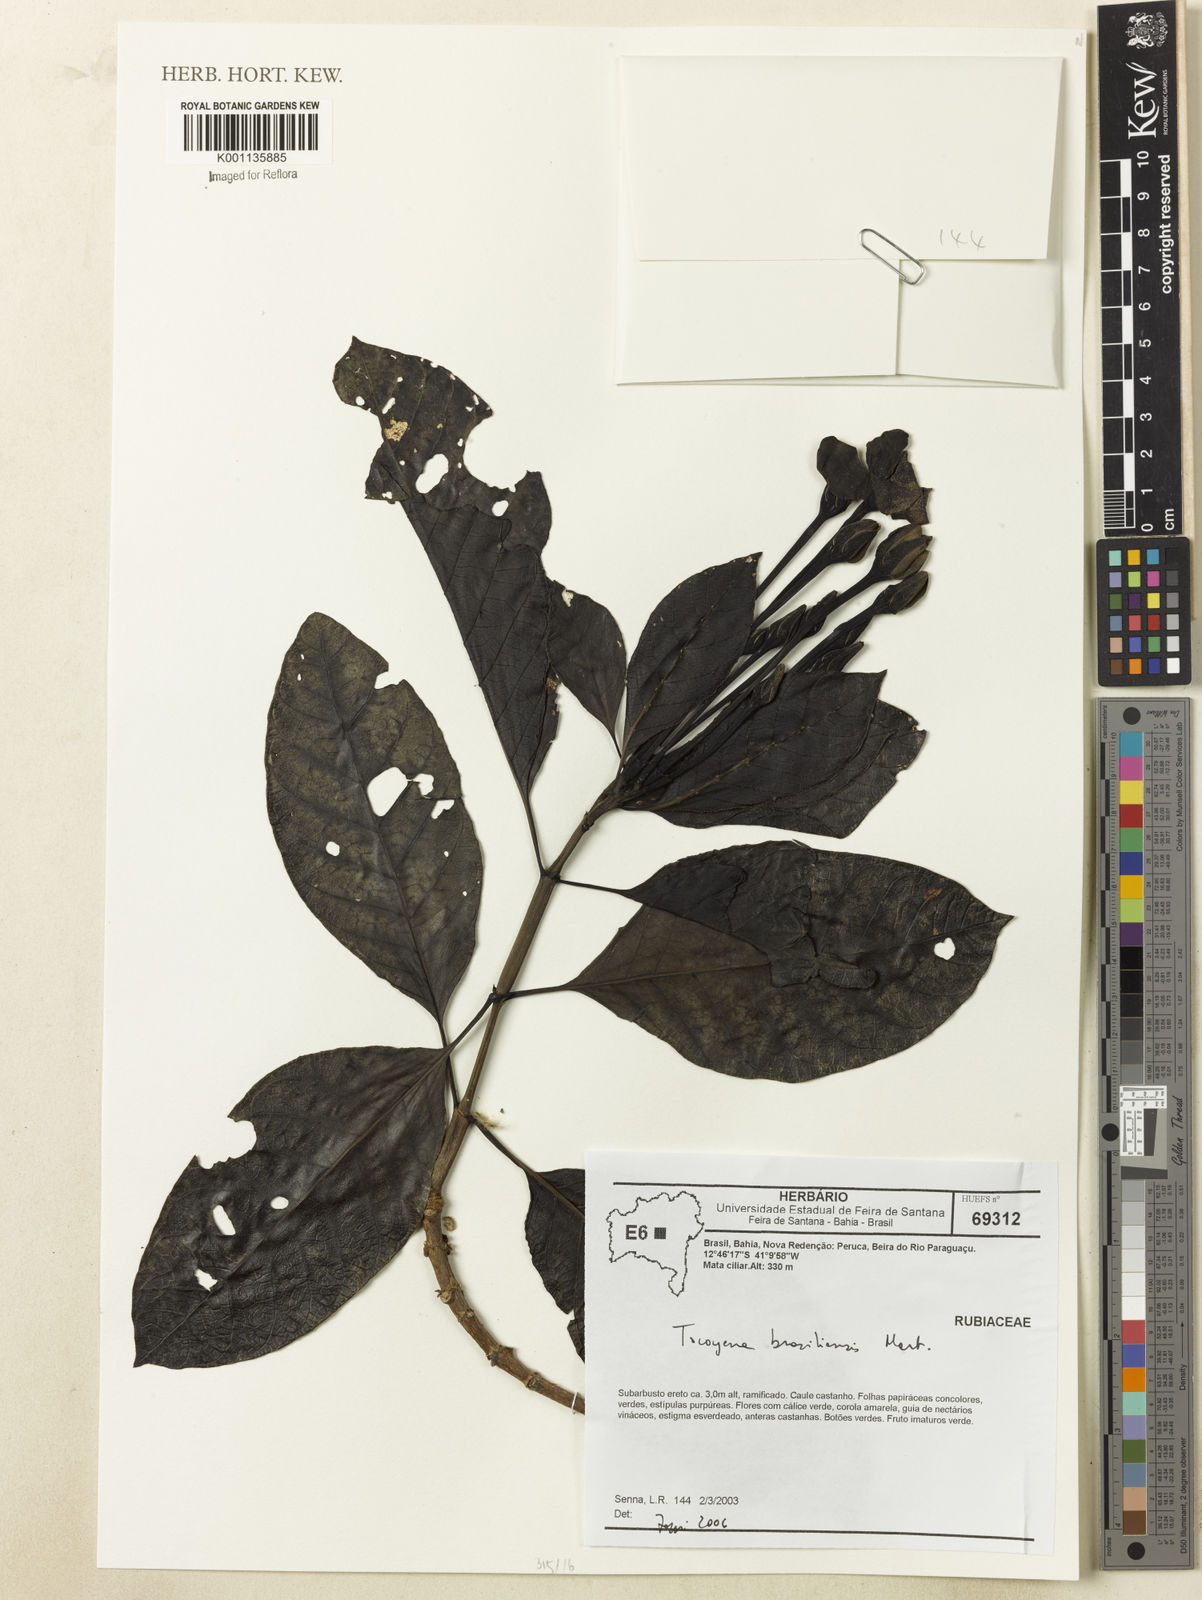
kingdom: Plantae
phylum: Tracheophyta
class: Magnoliopsida
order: Gentianales
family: Rubiaceae
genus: Tocoyena
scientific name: Tocoyena sprucei
